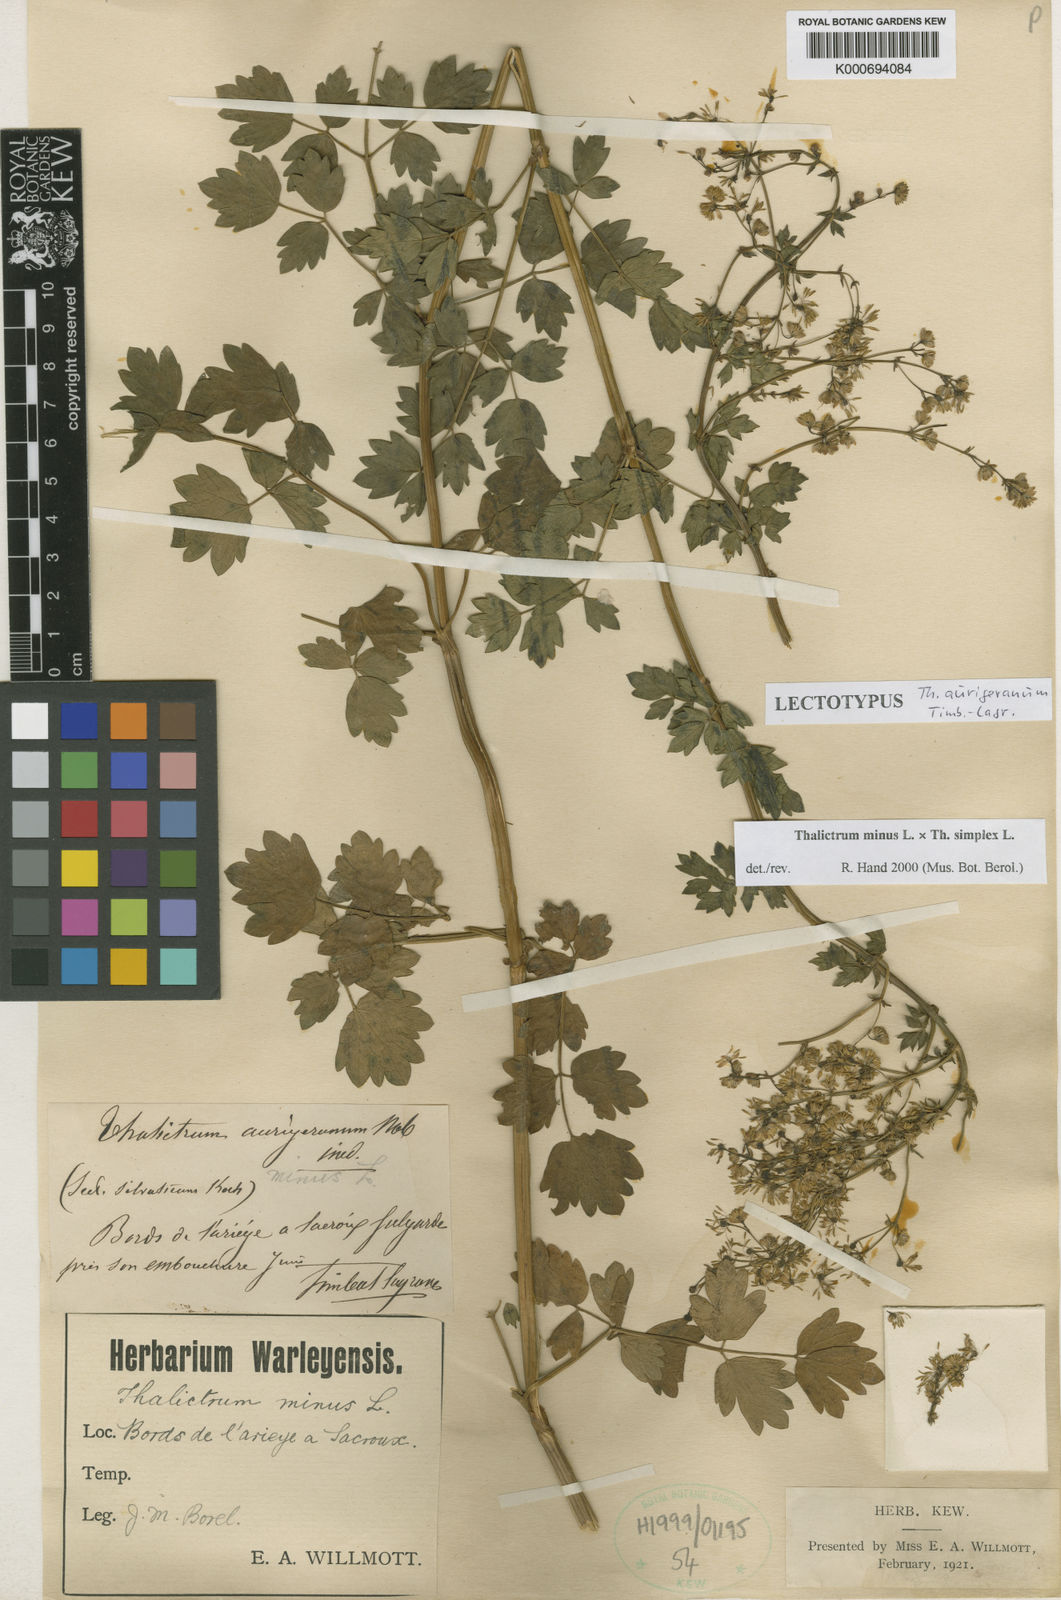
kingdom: Plantae
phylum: Tracheophyta
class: Magnoliopsida
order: Ranunculales
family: Ranunculaceae
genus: Thalictrum
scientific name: Thalictrum minus
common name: Lesser meadow-rue
